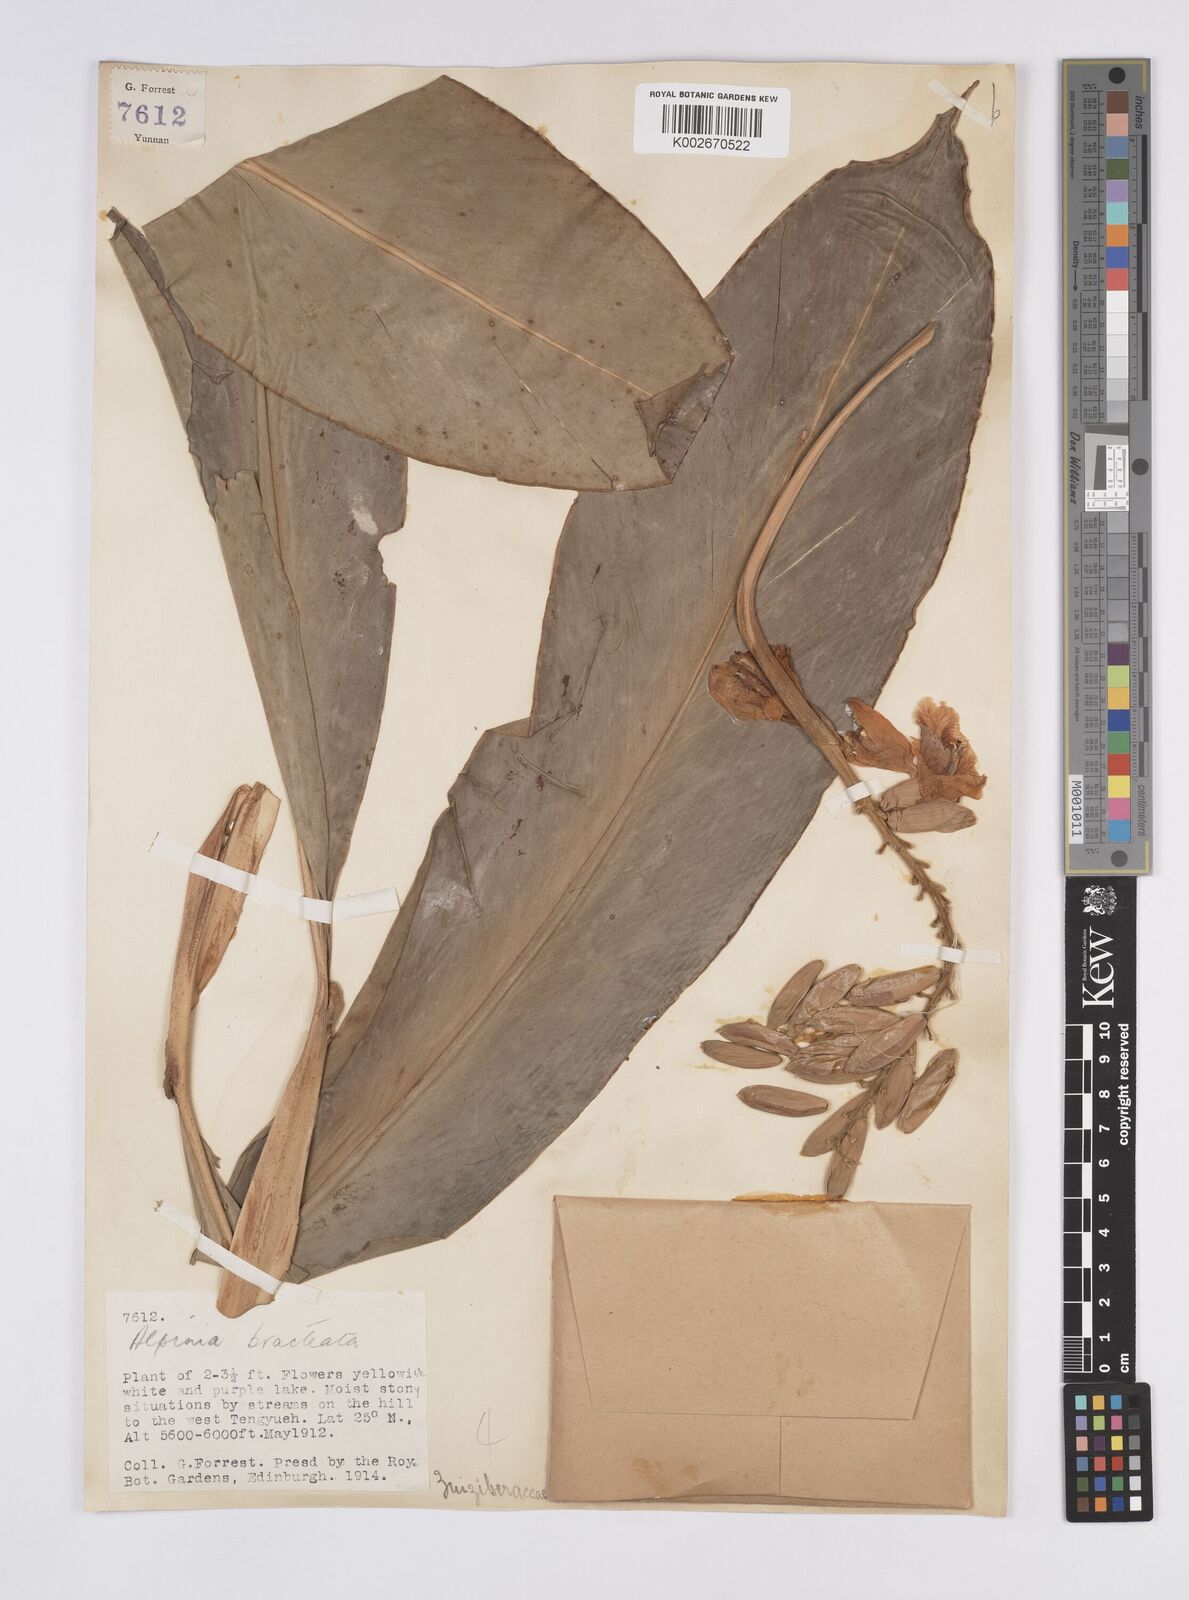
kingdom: Plantae
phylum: Tracheophyta
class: Liliopsida
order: Zingiberales
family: Zingiberaceae
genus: Alpinia
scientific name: Alpinia roxburghii
